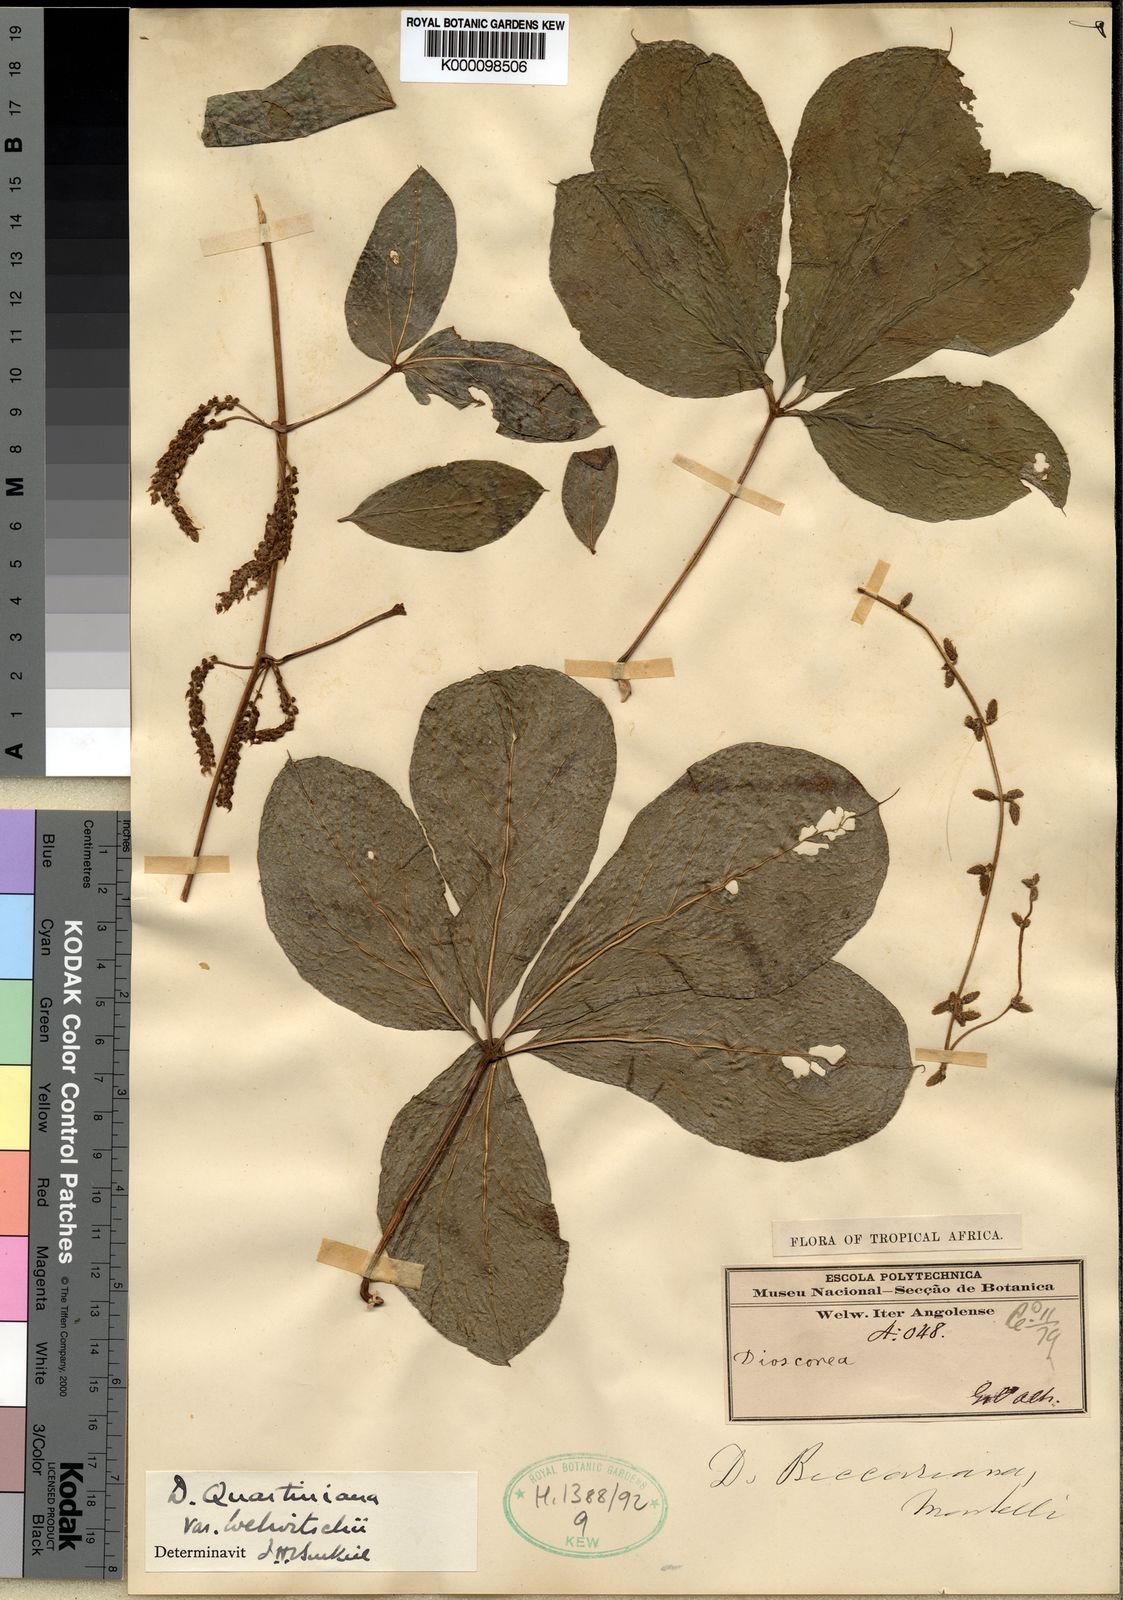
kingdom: Plantae
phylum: Tracheophyta
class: Liliopsida
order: Dioscoreales
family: Dioscoreaceae
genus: Dioscorea
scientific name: Dioscorea quartiniana
